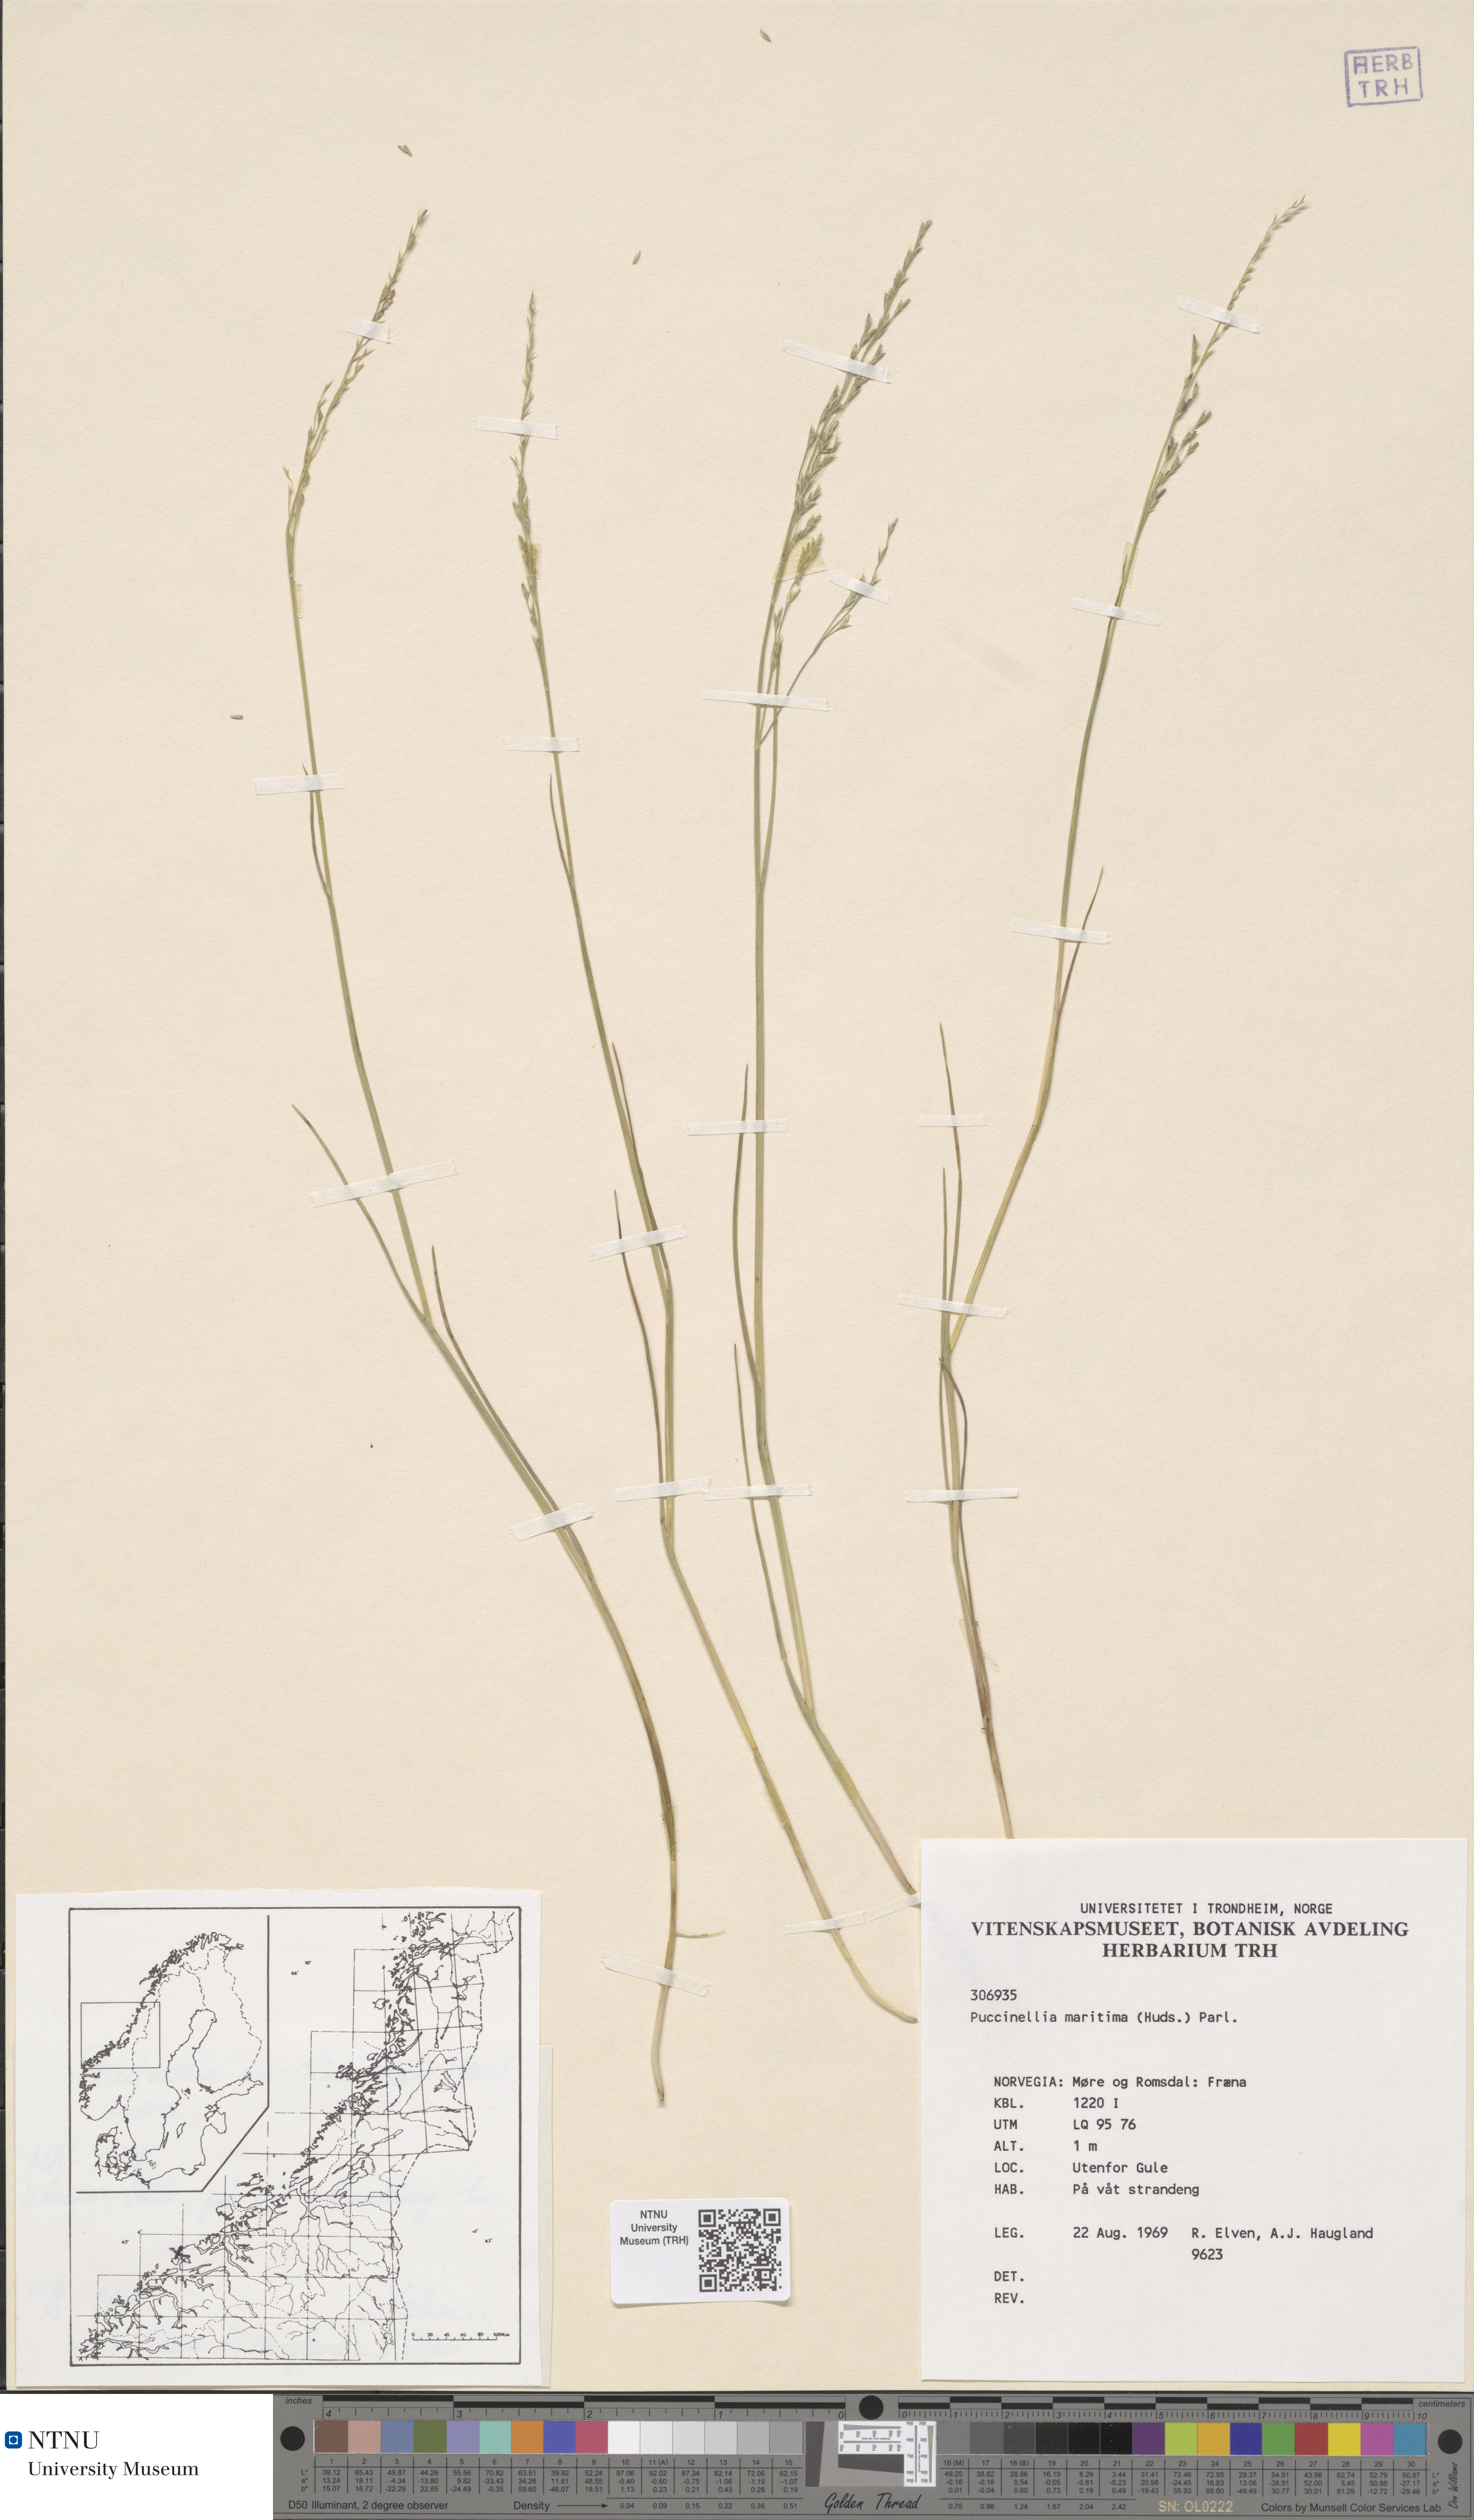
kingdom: Plantae
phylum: Tracheophyta
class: Liliopsida
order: Poales
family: Poaceae
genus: Puccinellia
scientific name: Puccinellia maritima
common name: Common saltmarsh grass
